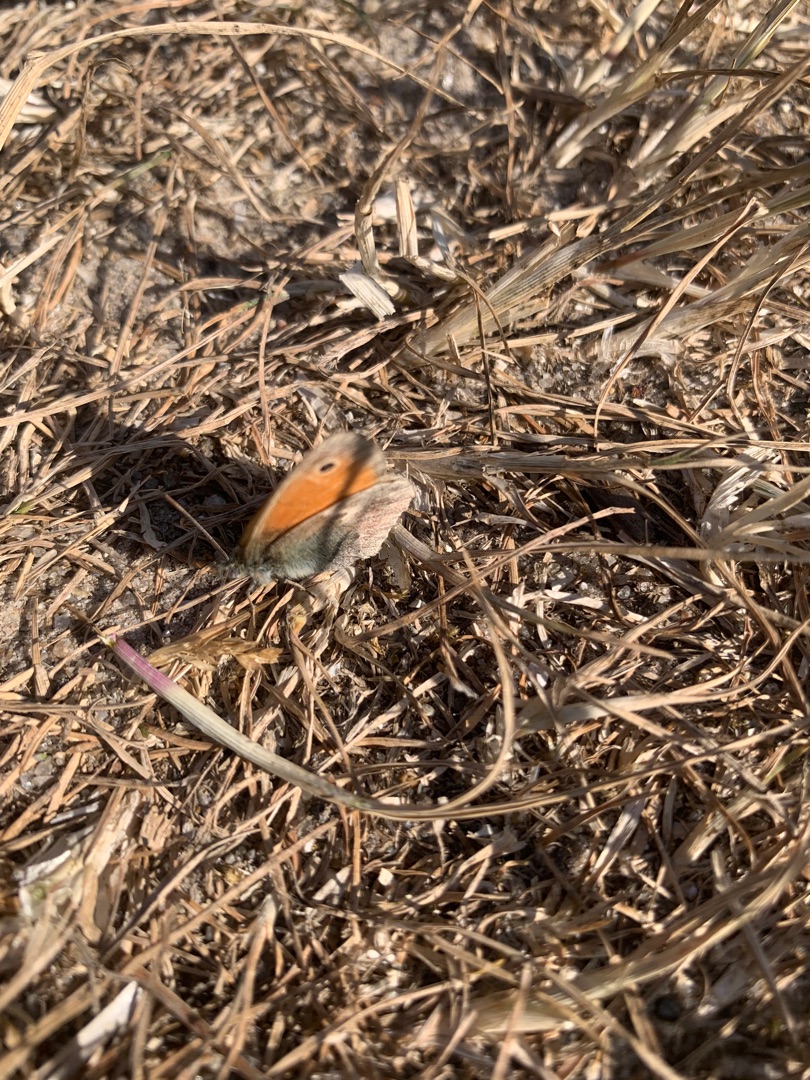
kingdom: Animalia
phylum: Arthropoda
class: Insecta
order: Lepidoptera
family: Nymphalidae
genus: Coenonympha
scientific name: Coenonympha pamphilus
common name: Okkergul randøje
